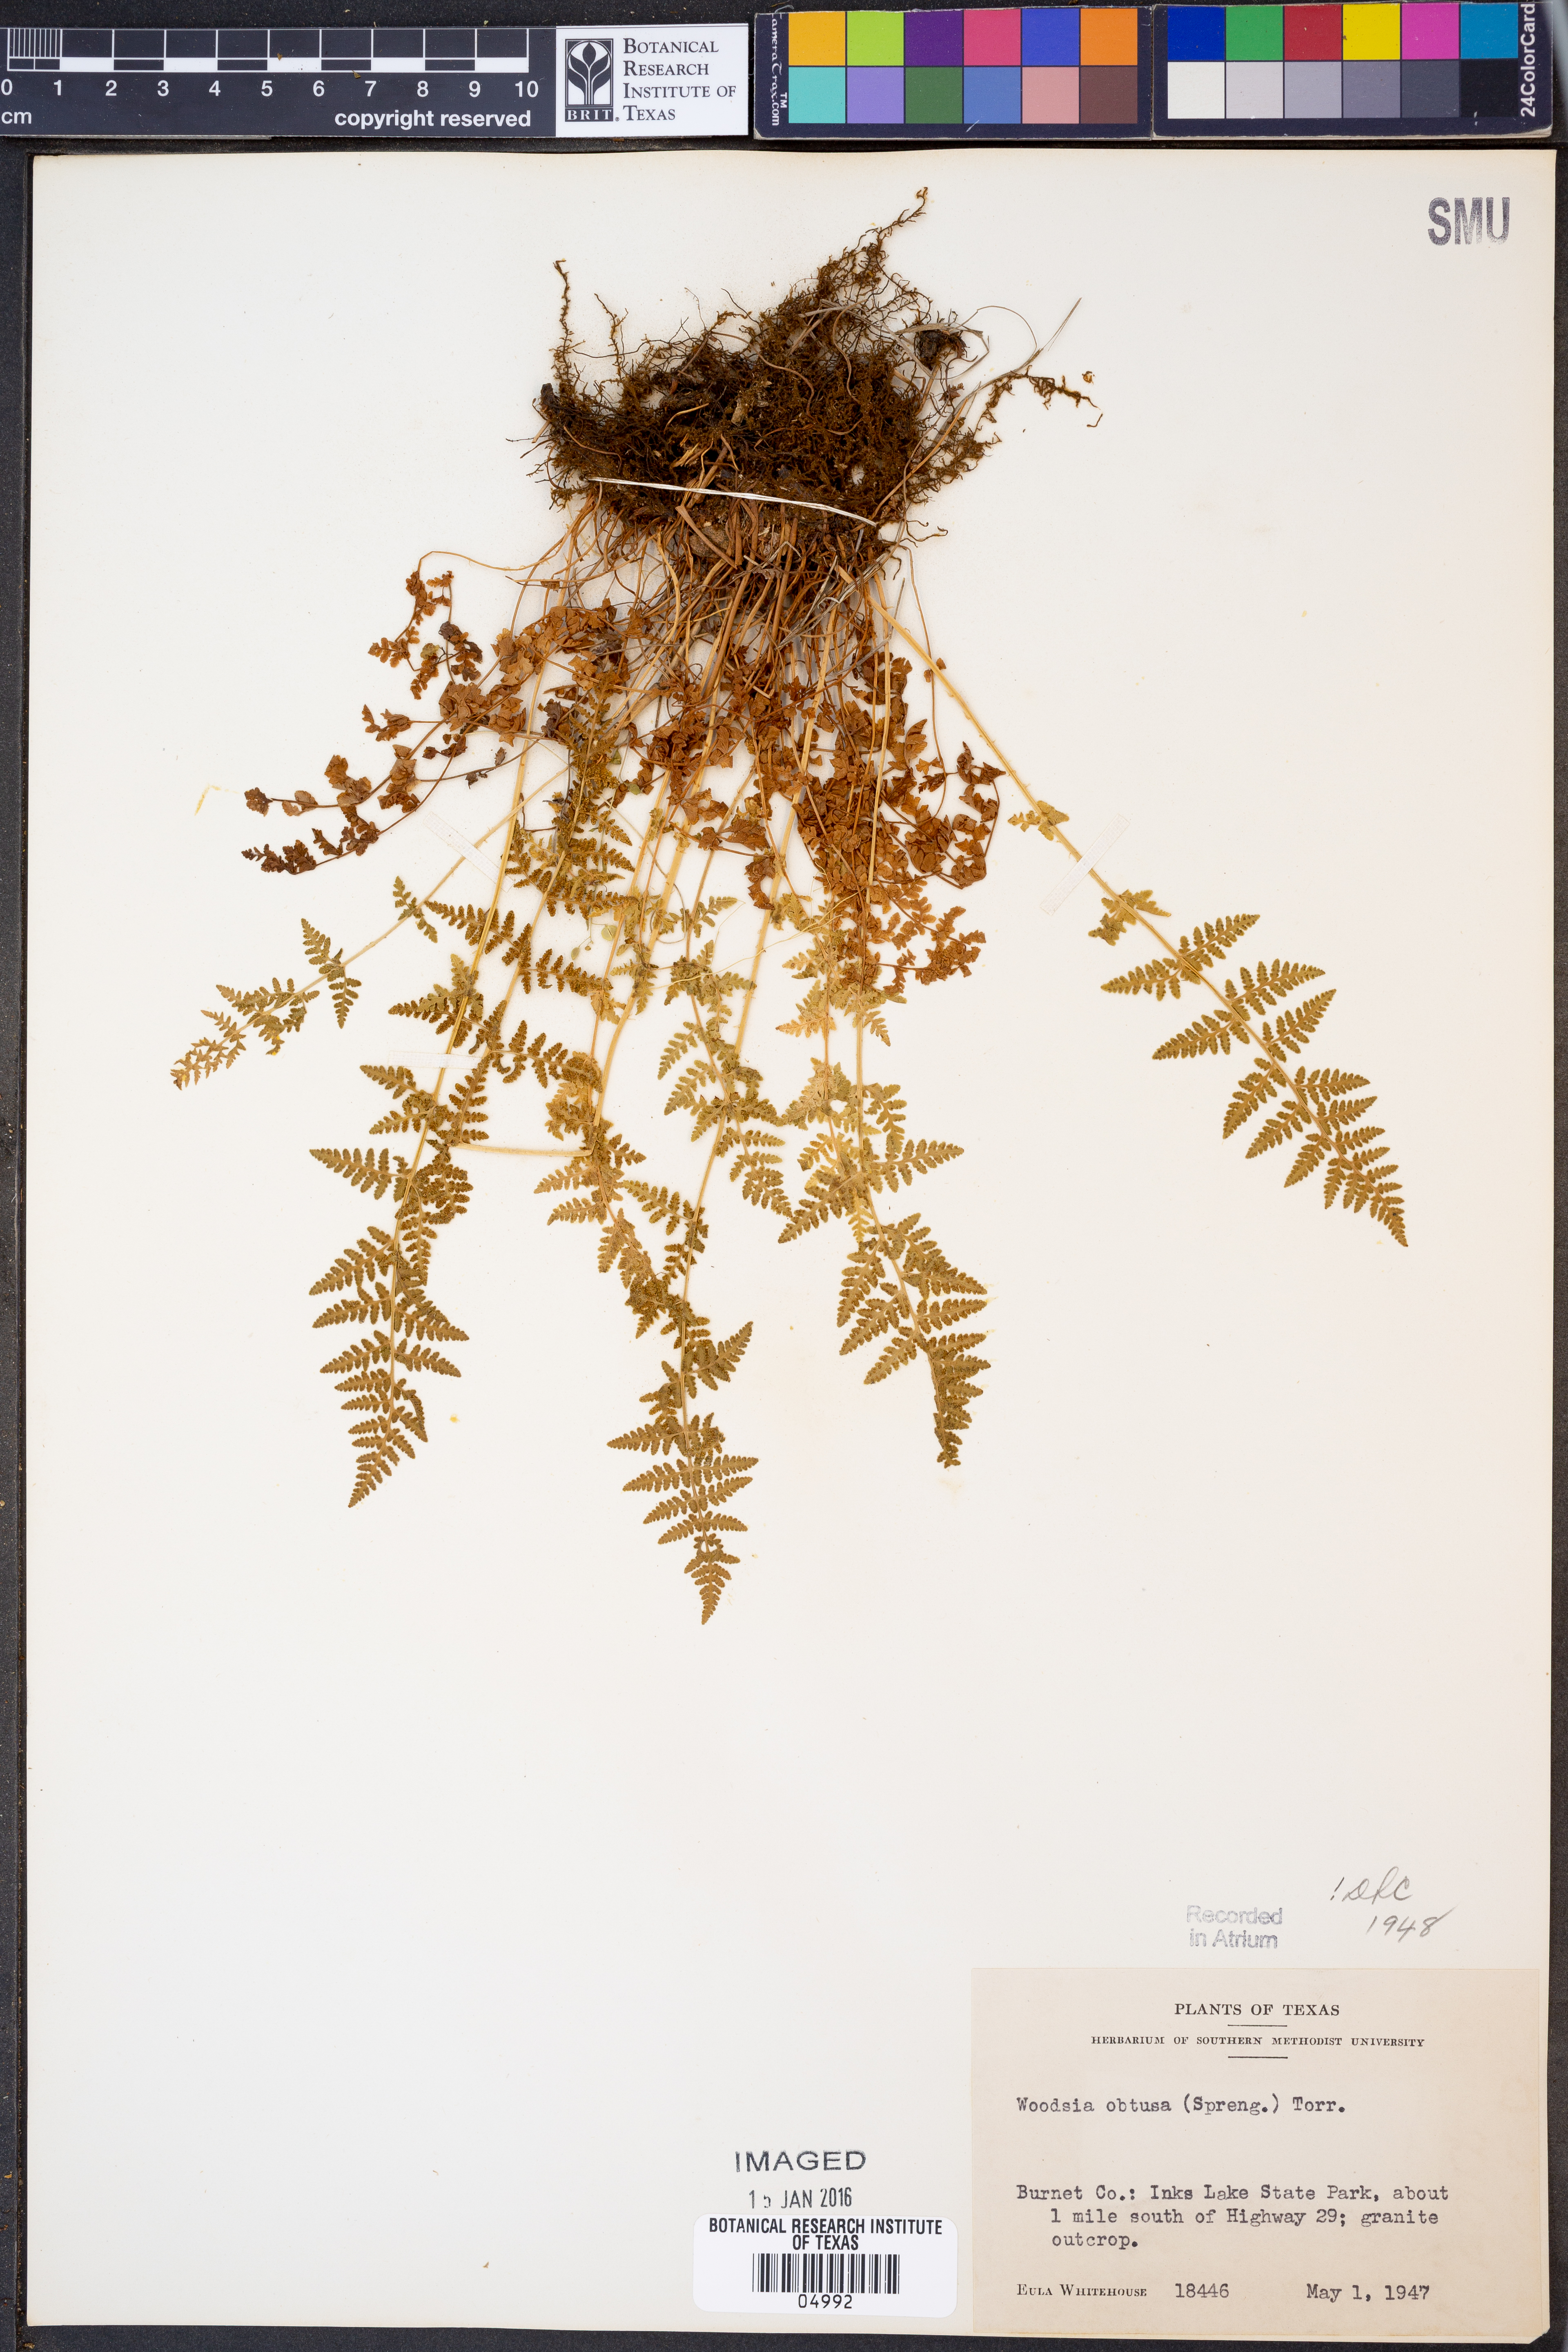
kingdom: Plantae
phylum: Tracheophyta
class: Polypodiopsida
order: Polypodiales
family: Woodsiaceae
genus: Physematium
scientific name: Physematium obtusum
